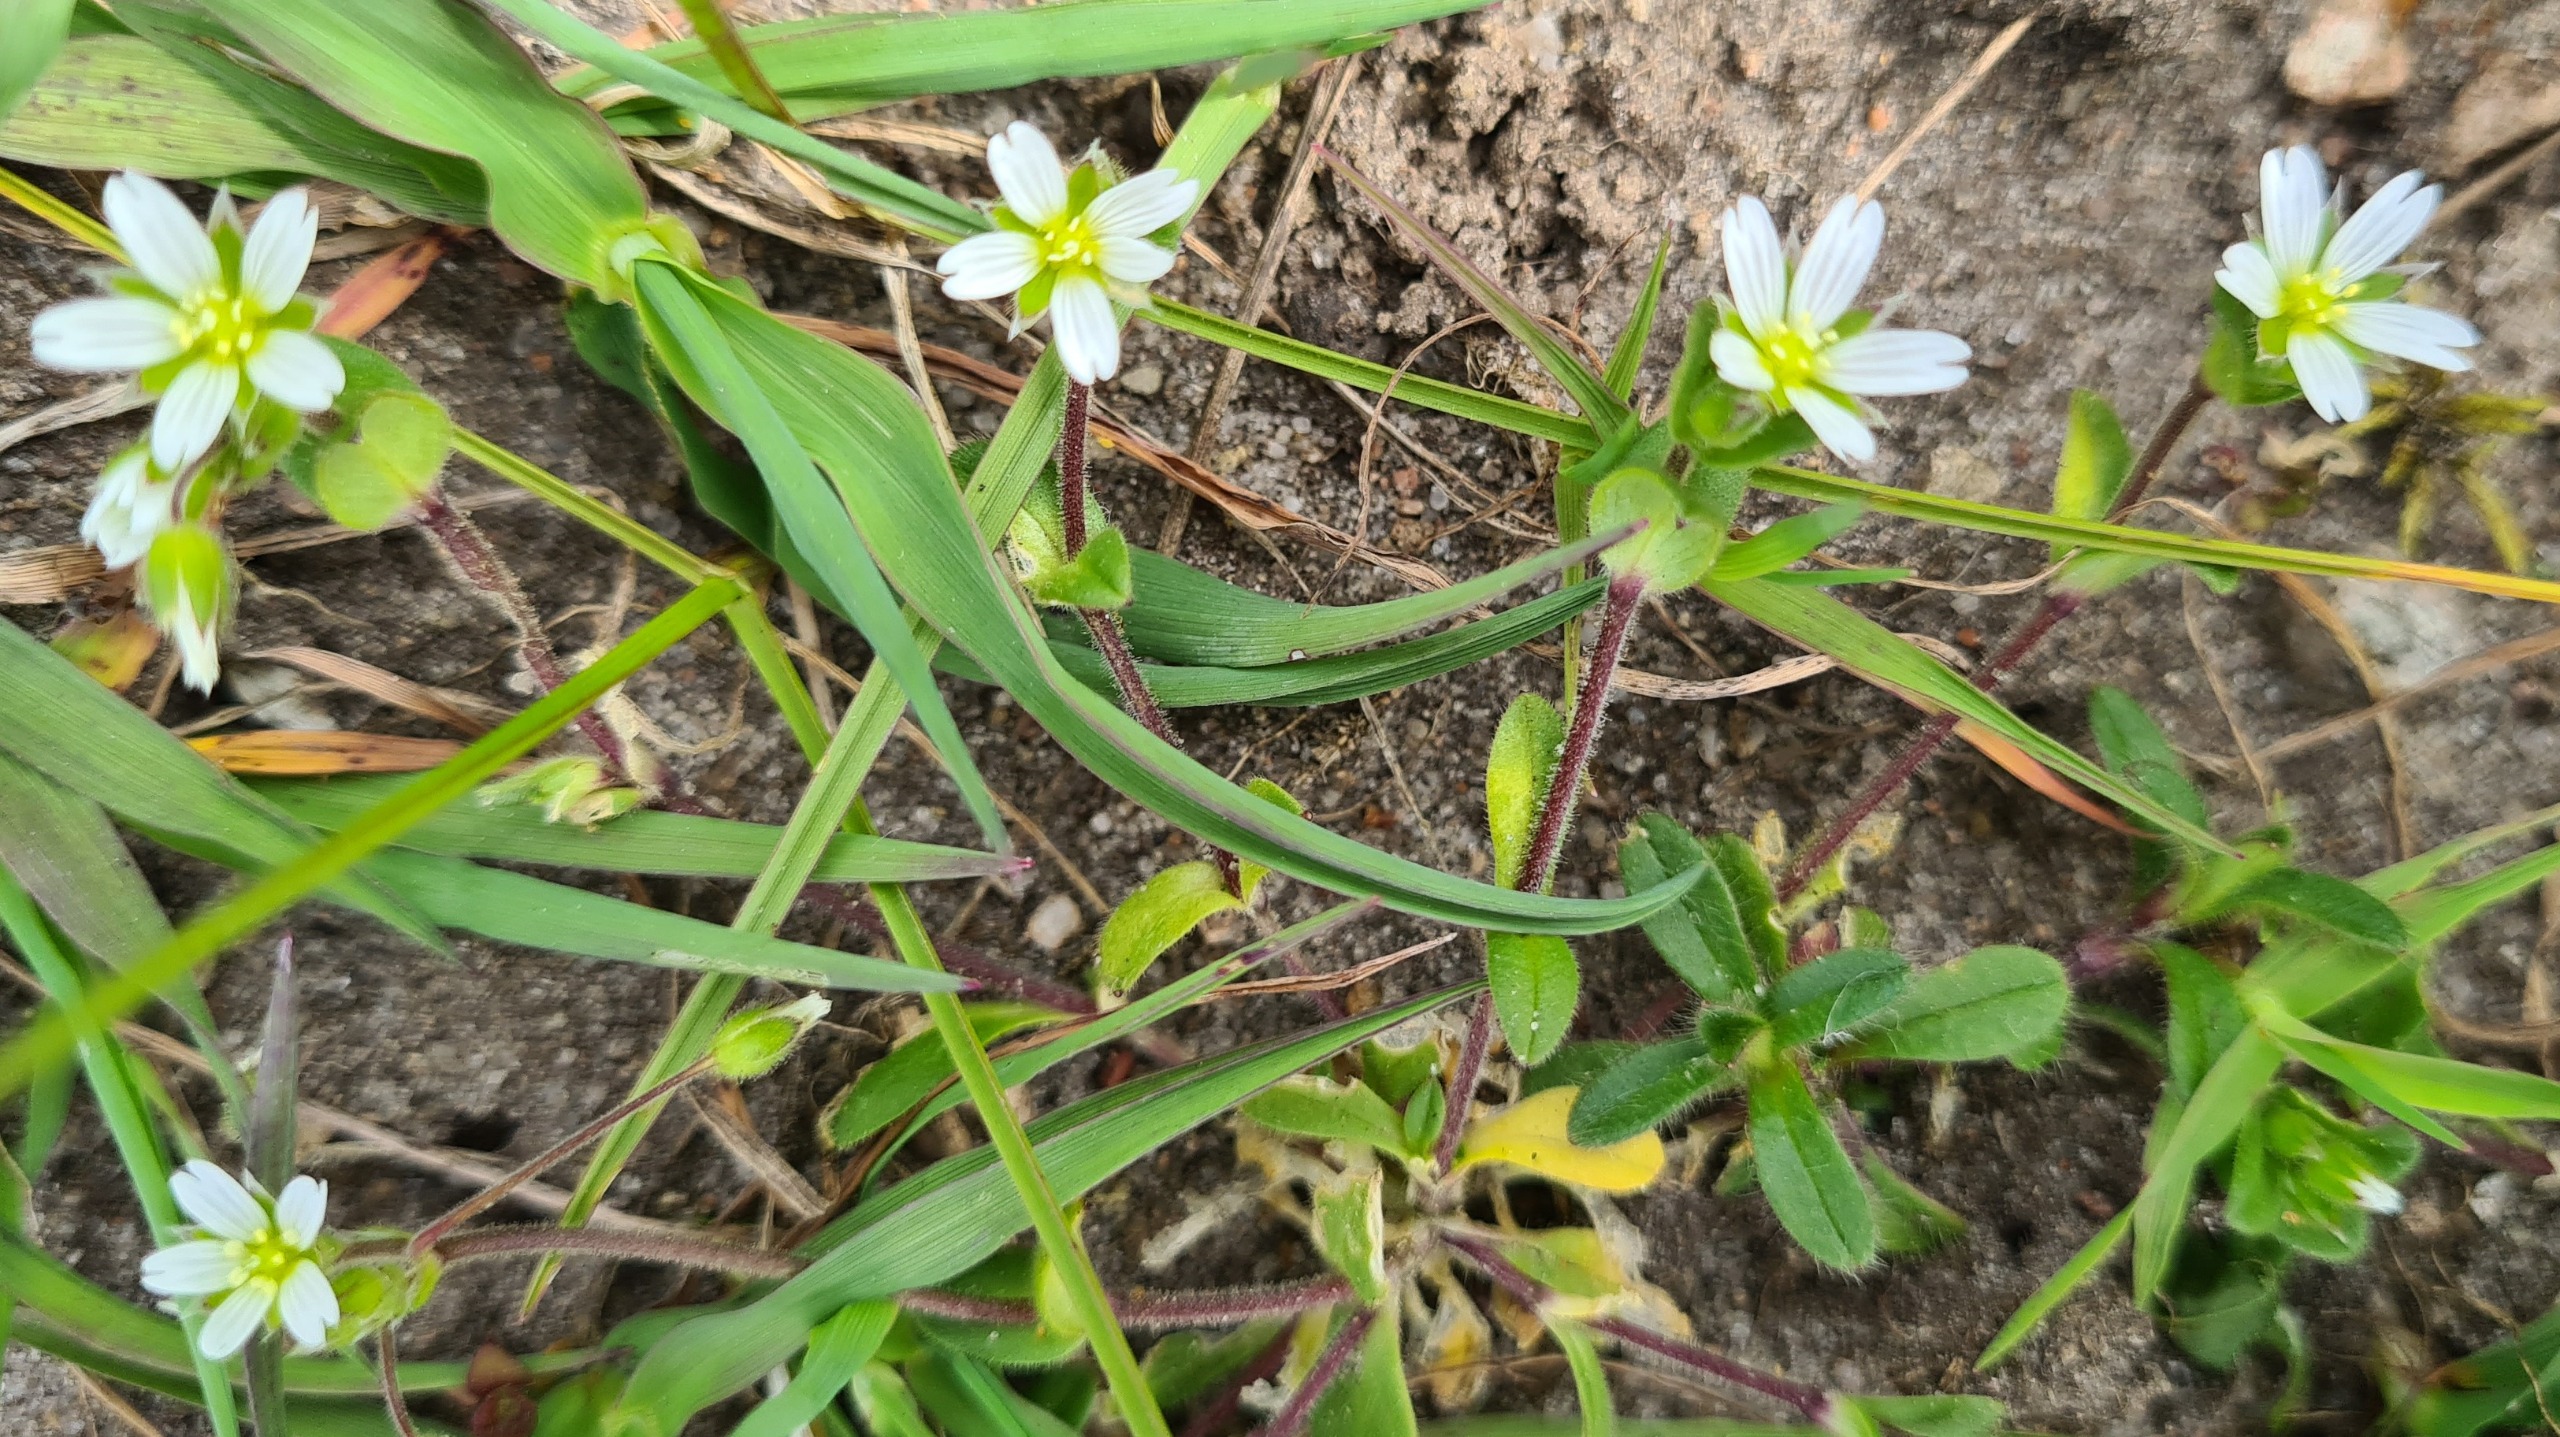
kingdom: Plantae
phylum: Tracheophyta
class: Magnoliopsida
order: Caryophyllales
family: Caryophyllaceae
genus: Cerastium
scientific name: Cerastium semidecandrum
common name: Femhannet hønsetarm
